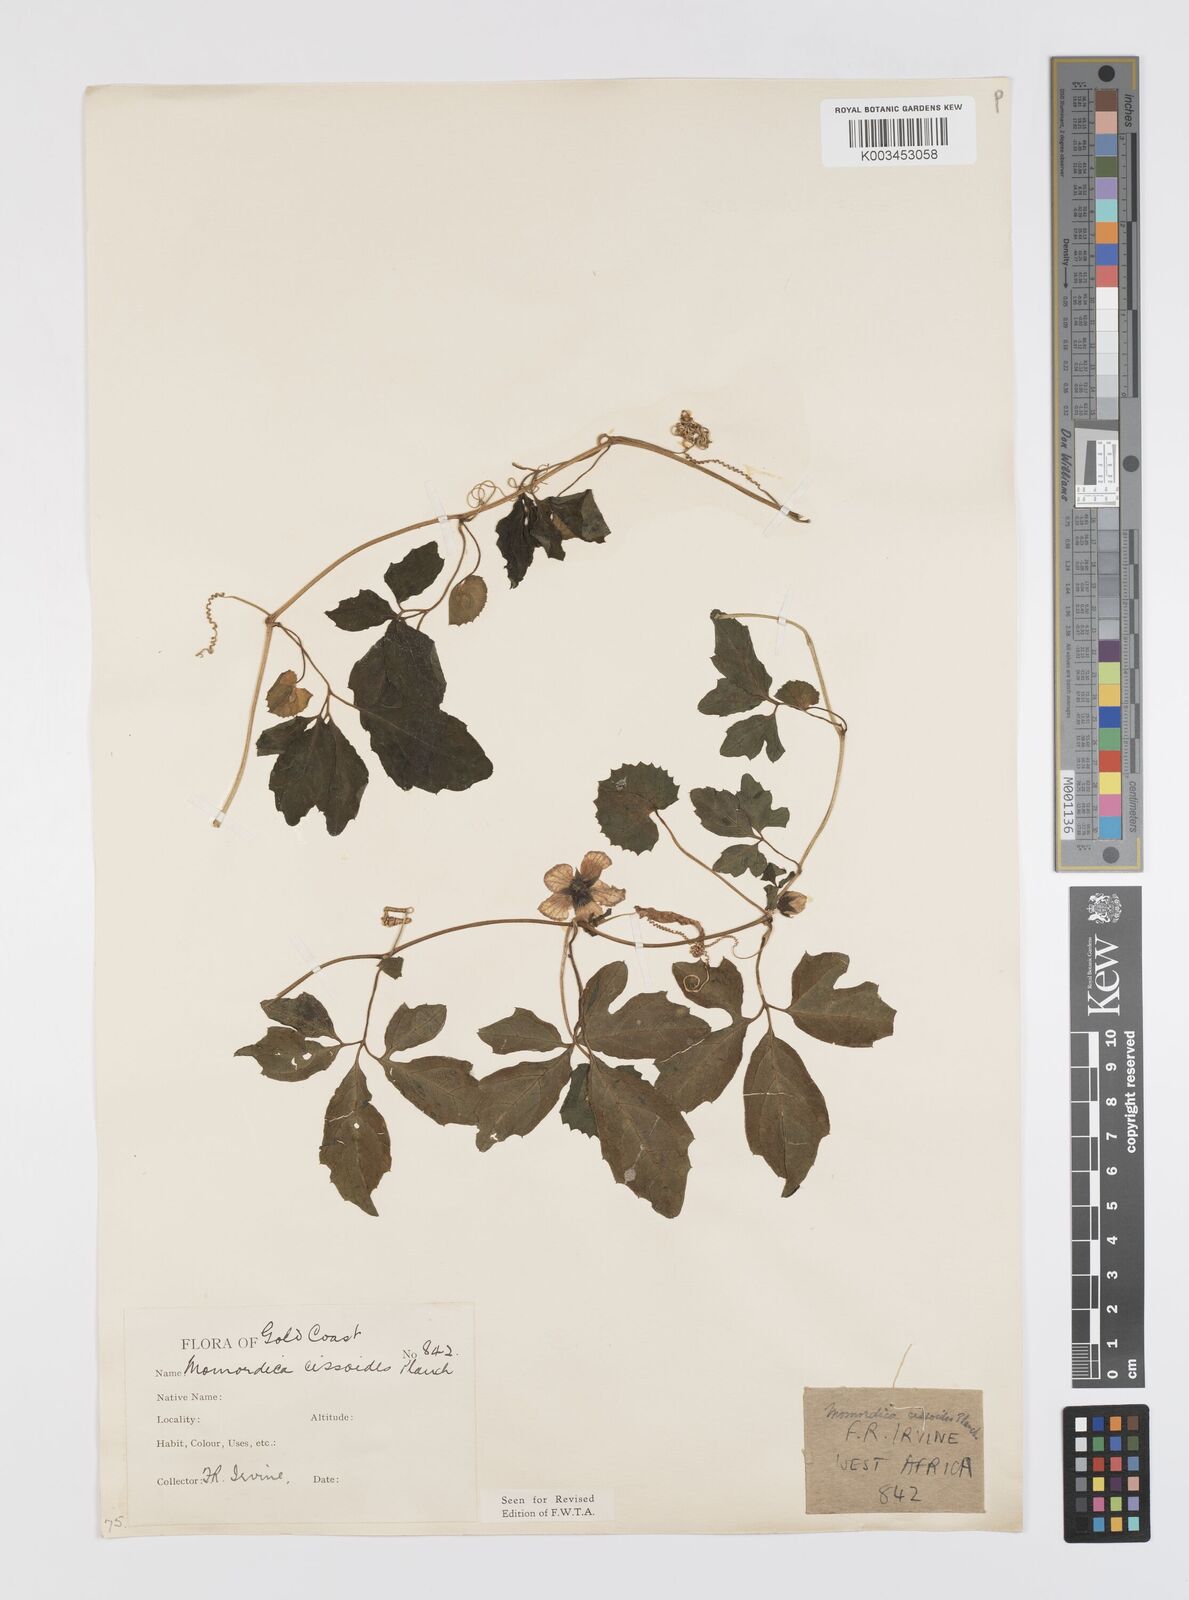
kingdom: Plantae
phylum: Tracheophyta
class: Magnoliopsida
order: Cucurbitales
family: Cucurbitaceae
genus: Momordica
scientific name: Momordica cissoides
